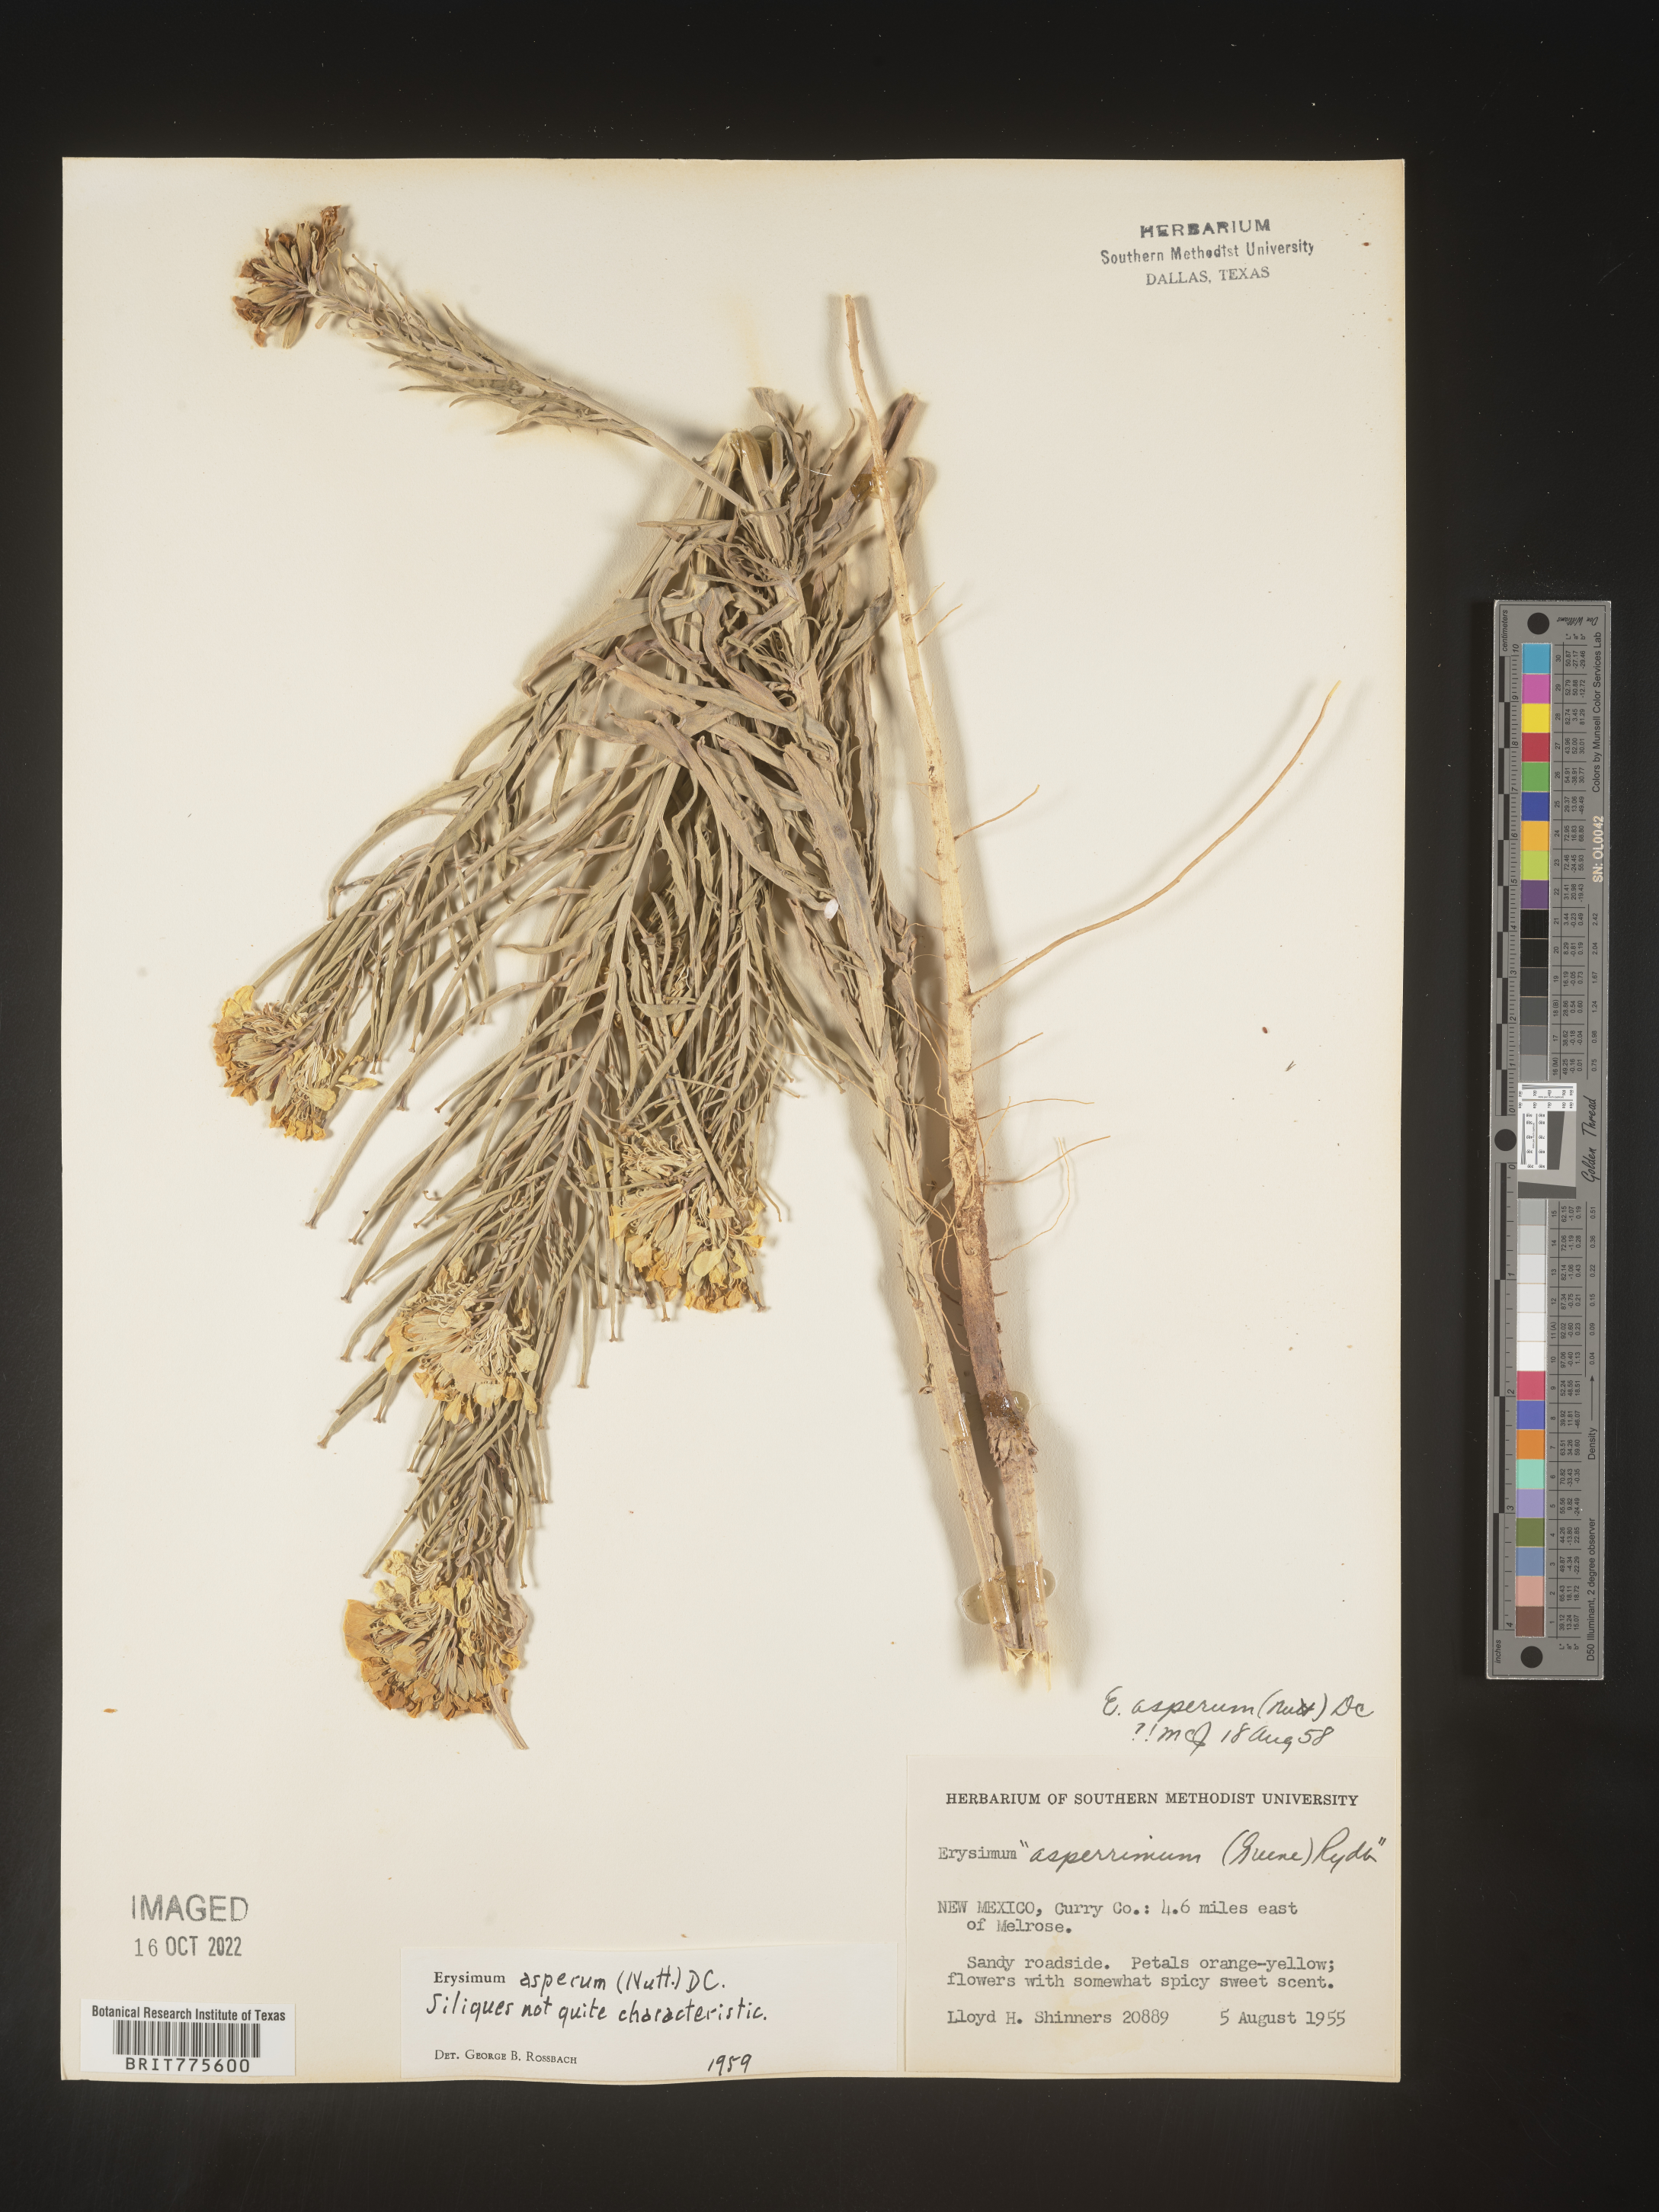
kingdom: Plantae
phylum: Tracheophyta
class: Magnoliopsida
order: Brassicales
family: Brassicaceae
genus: Erysimum
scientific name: Erysimum capitatum
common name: Western wallflower
